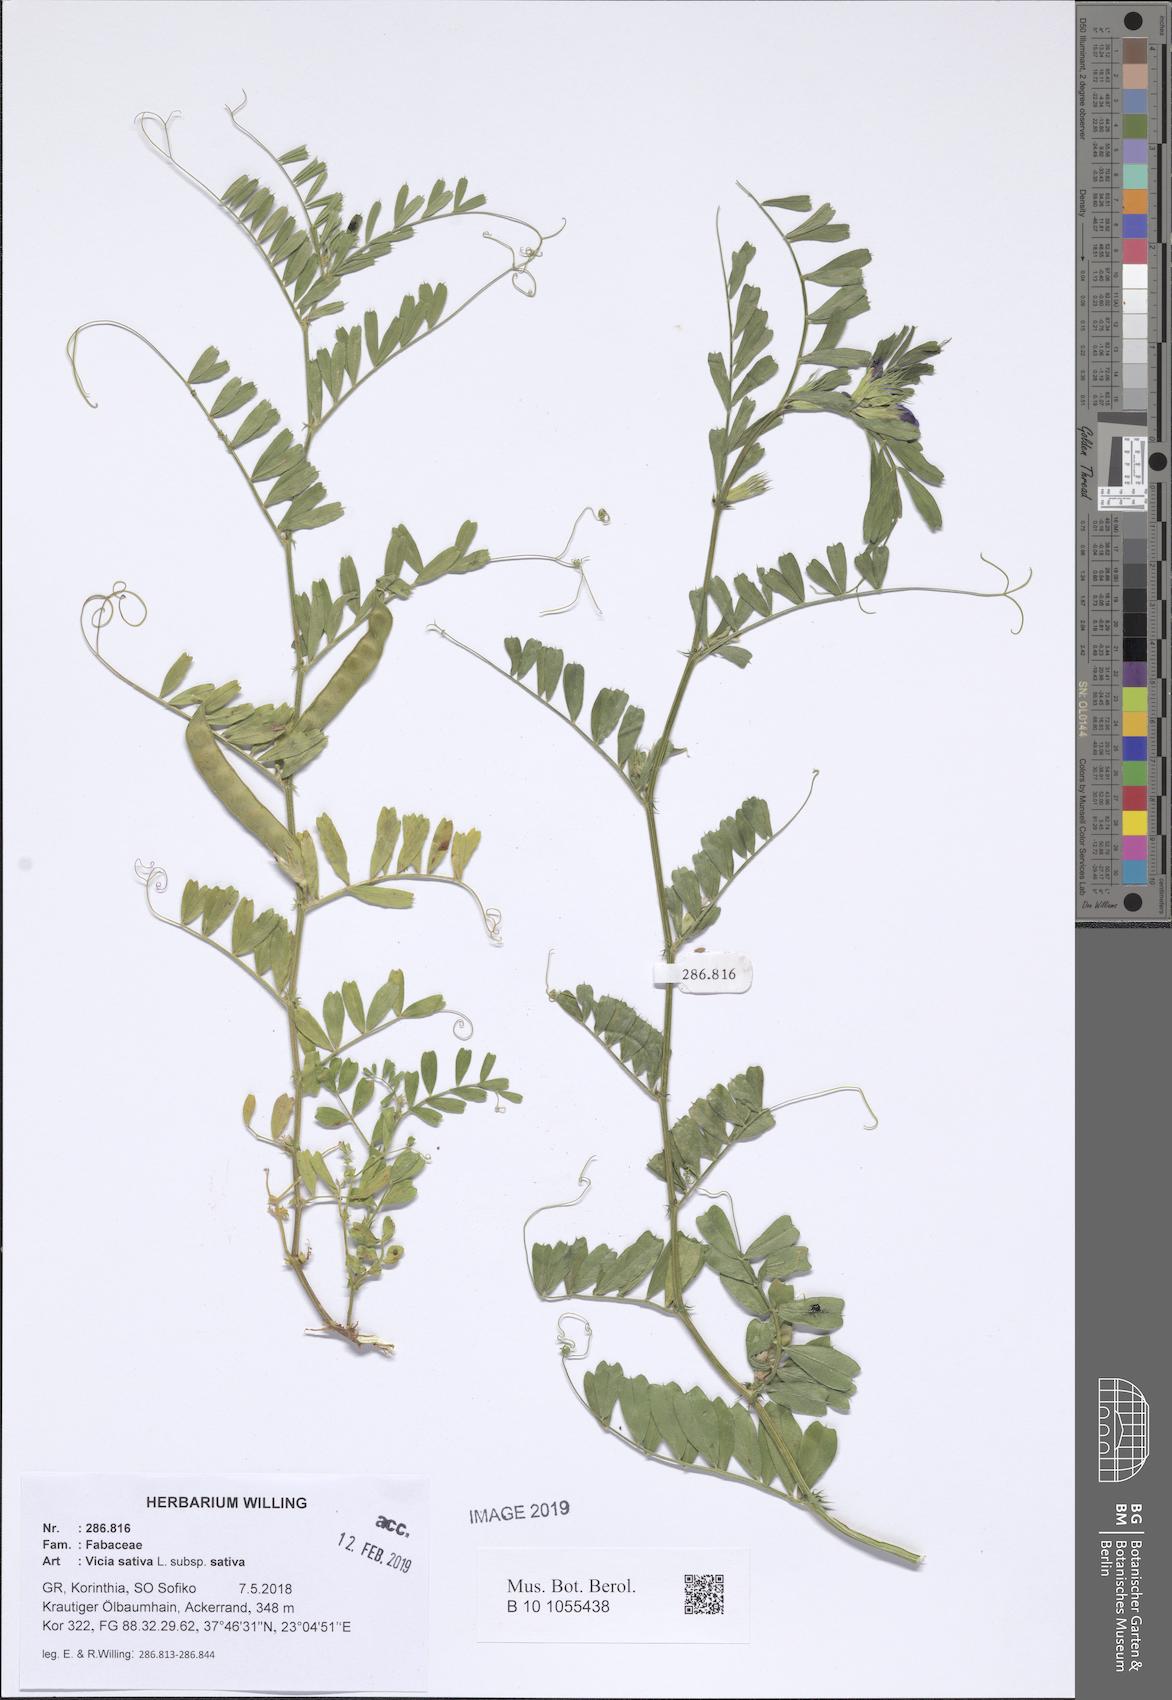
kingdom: Plantae
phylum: Tracheophyta
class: Magnoliopsida
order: Fabales
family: Fabaceae
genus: Vicia
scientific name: Vicia sativa
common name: Garden vetch
